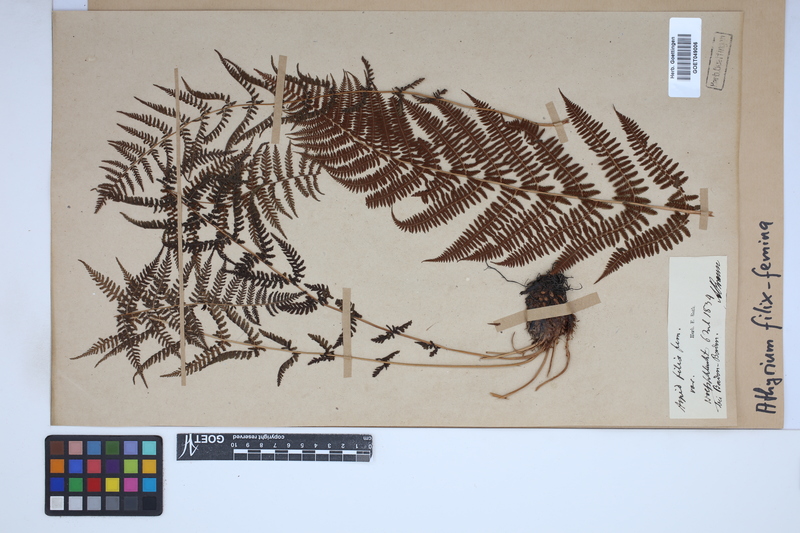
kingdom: Plantae
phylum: Tracheophyta
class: Polypodiopsida
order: Polypodiales
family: Athyriaceae
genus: Athyrium
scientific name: Athyrium filix-femina
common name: Lady fern
